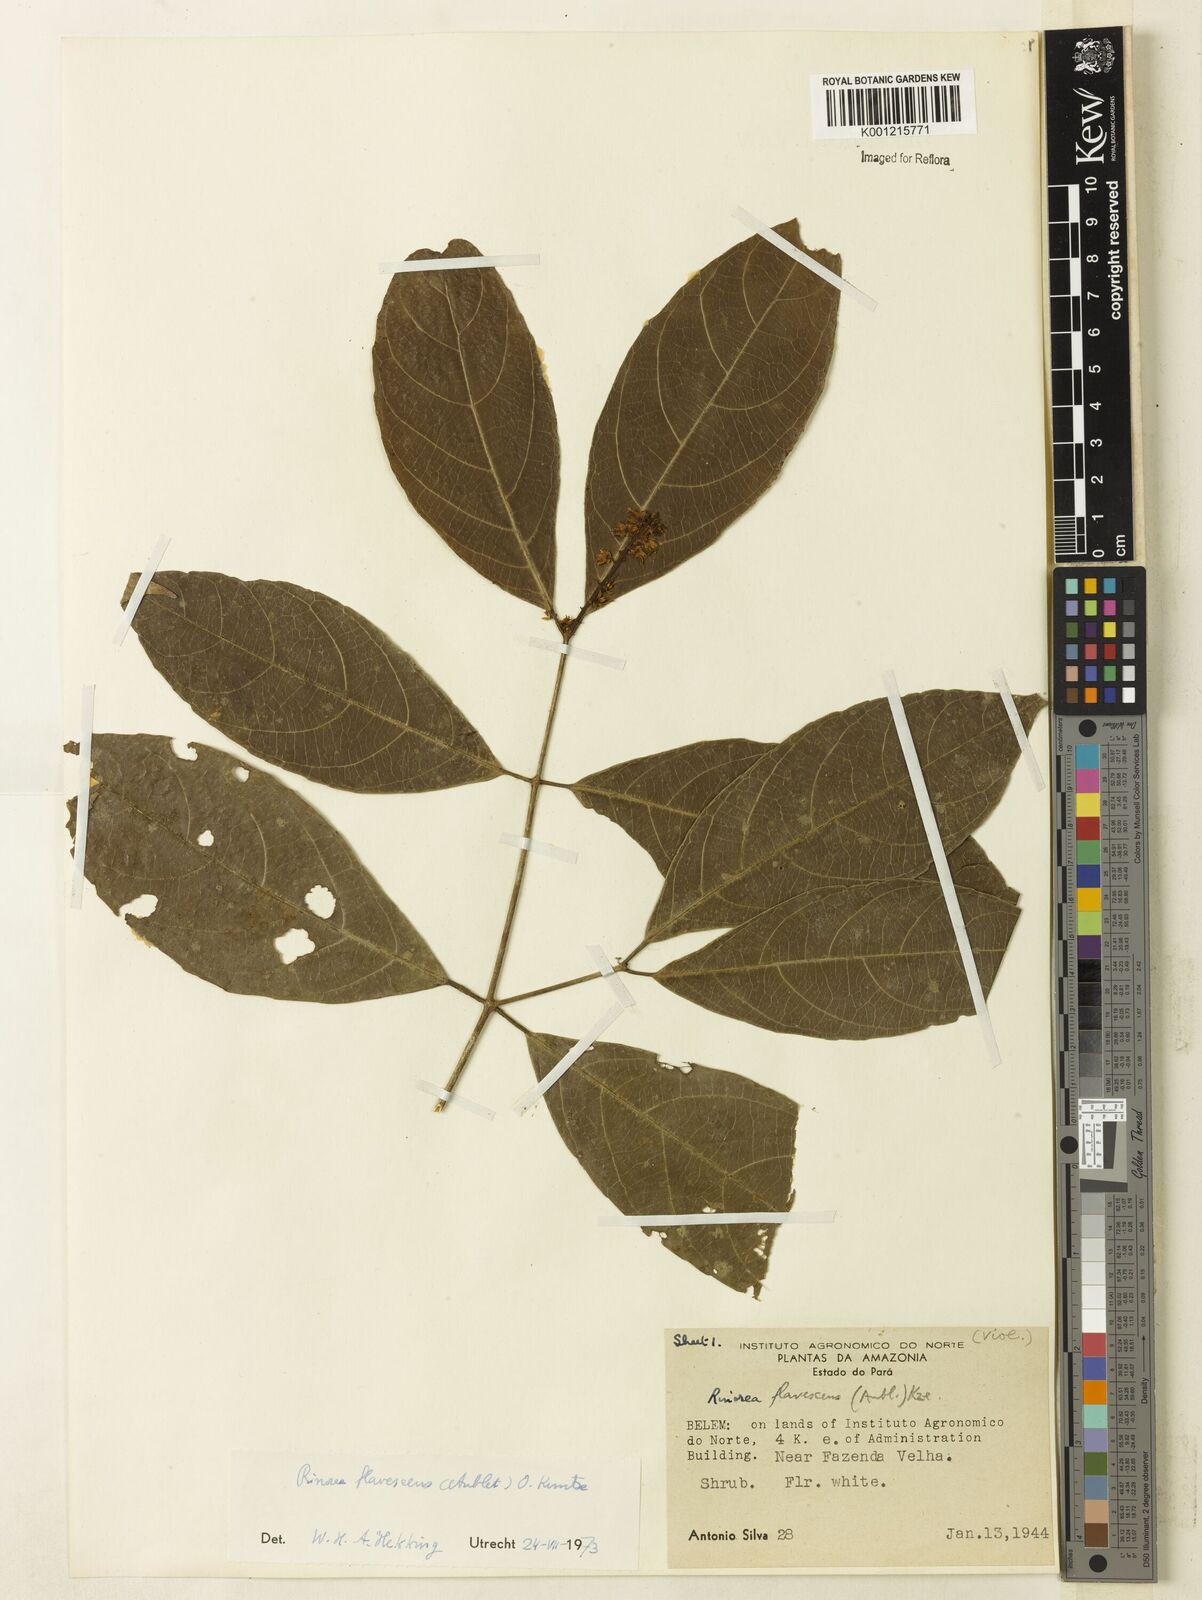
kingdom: Plantae
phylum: Tracheophyta
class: Magnoliopsida
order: Malpighiales
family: Violaceae
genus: Rinorea
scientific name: Rinorea flavescens
